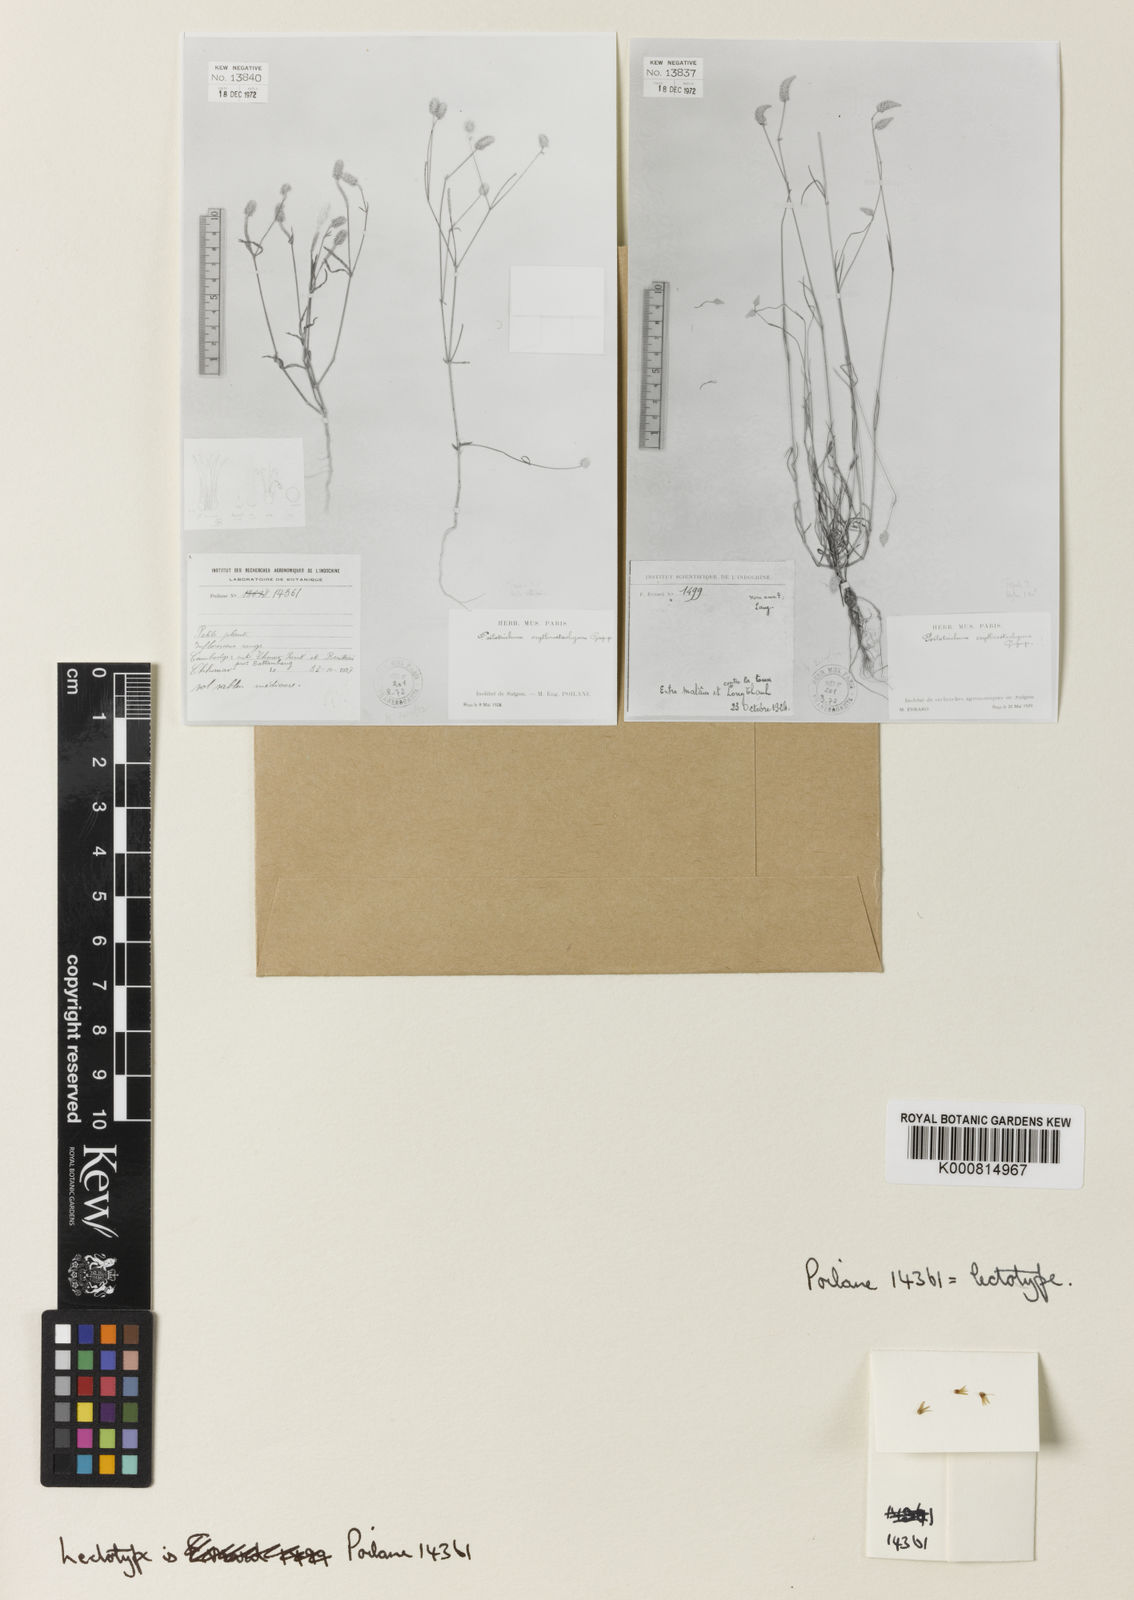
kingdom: Plantae
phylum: Tracheophyta
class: Magnoliopsida
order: Caryophyllales
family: Amaranthaceae
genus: Psilotrichum
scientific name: Psilotrichum ferrugineum
